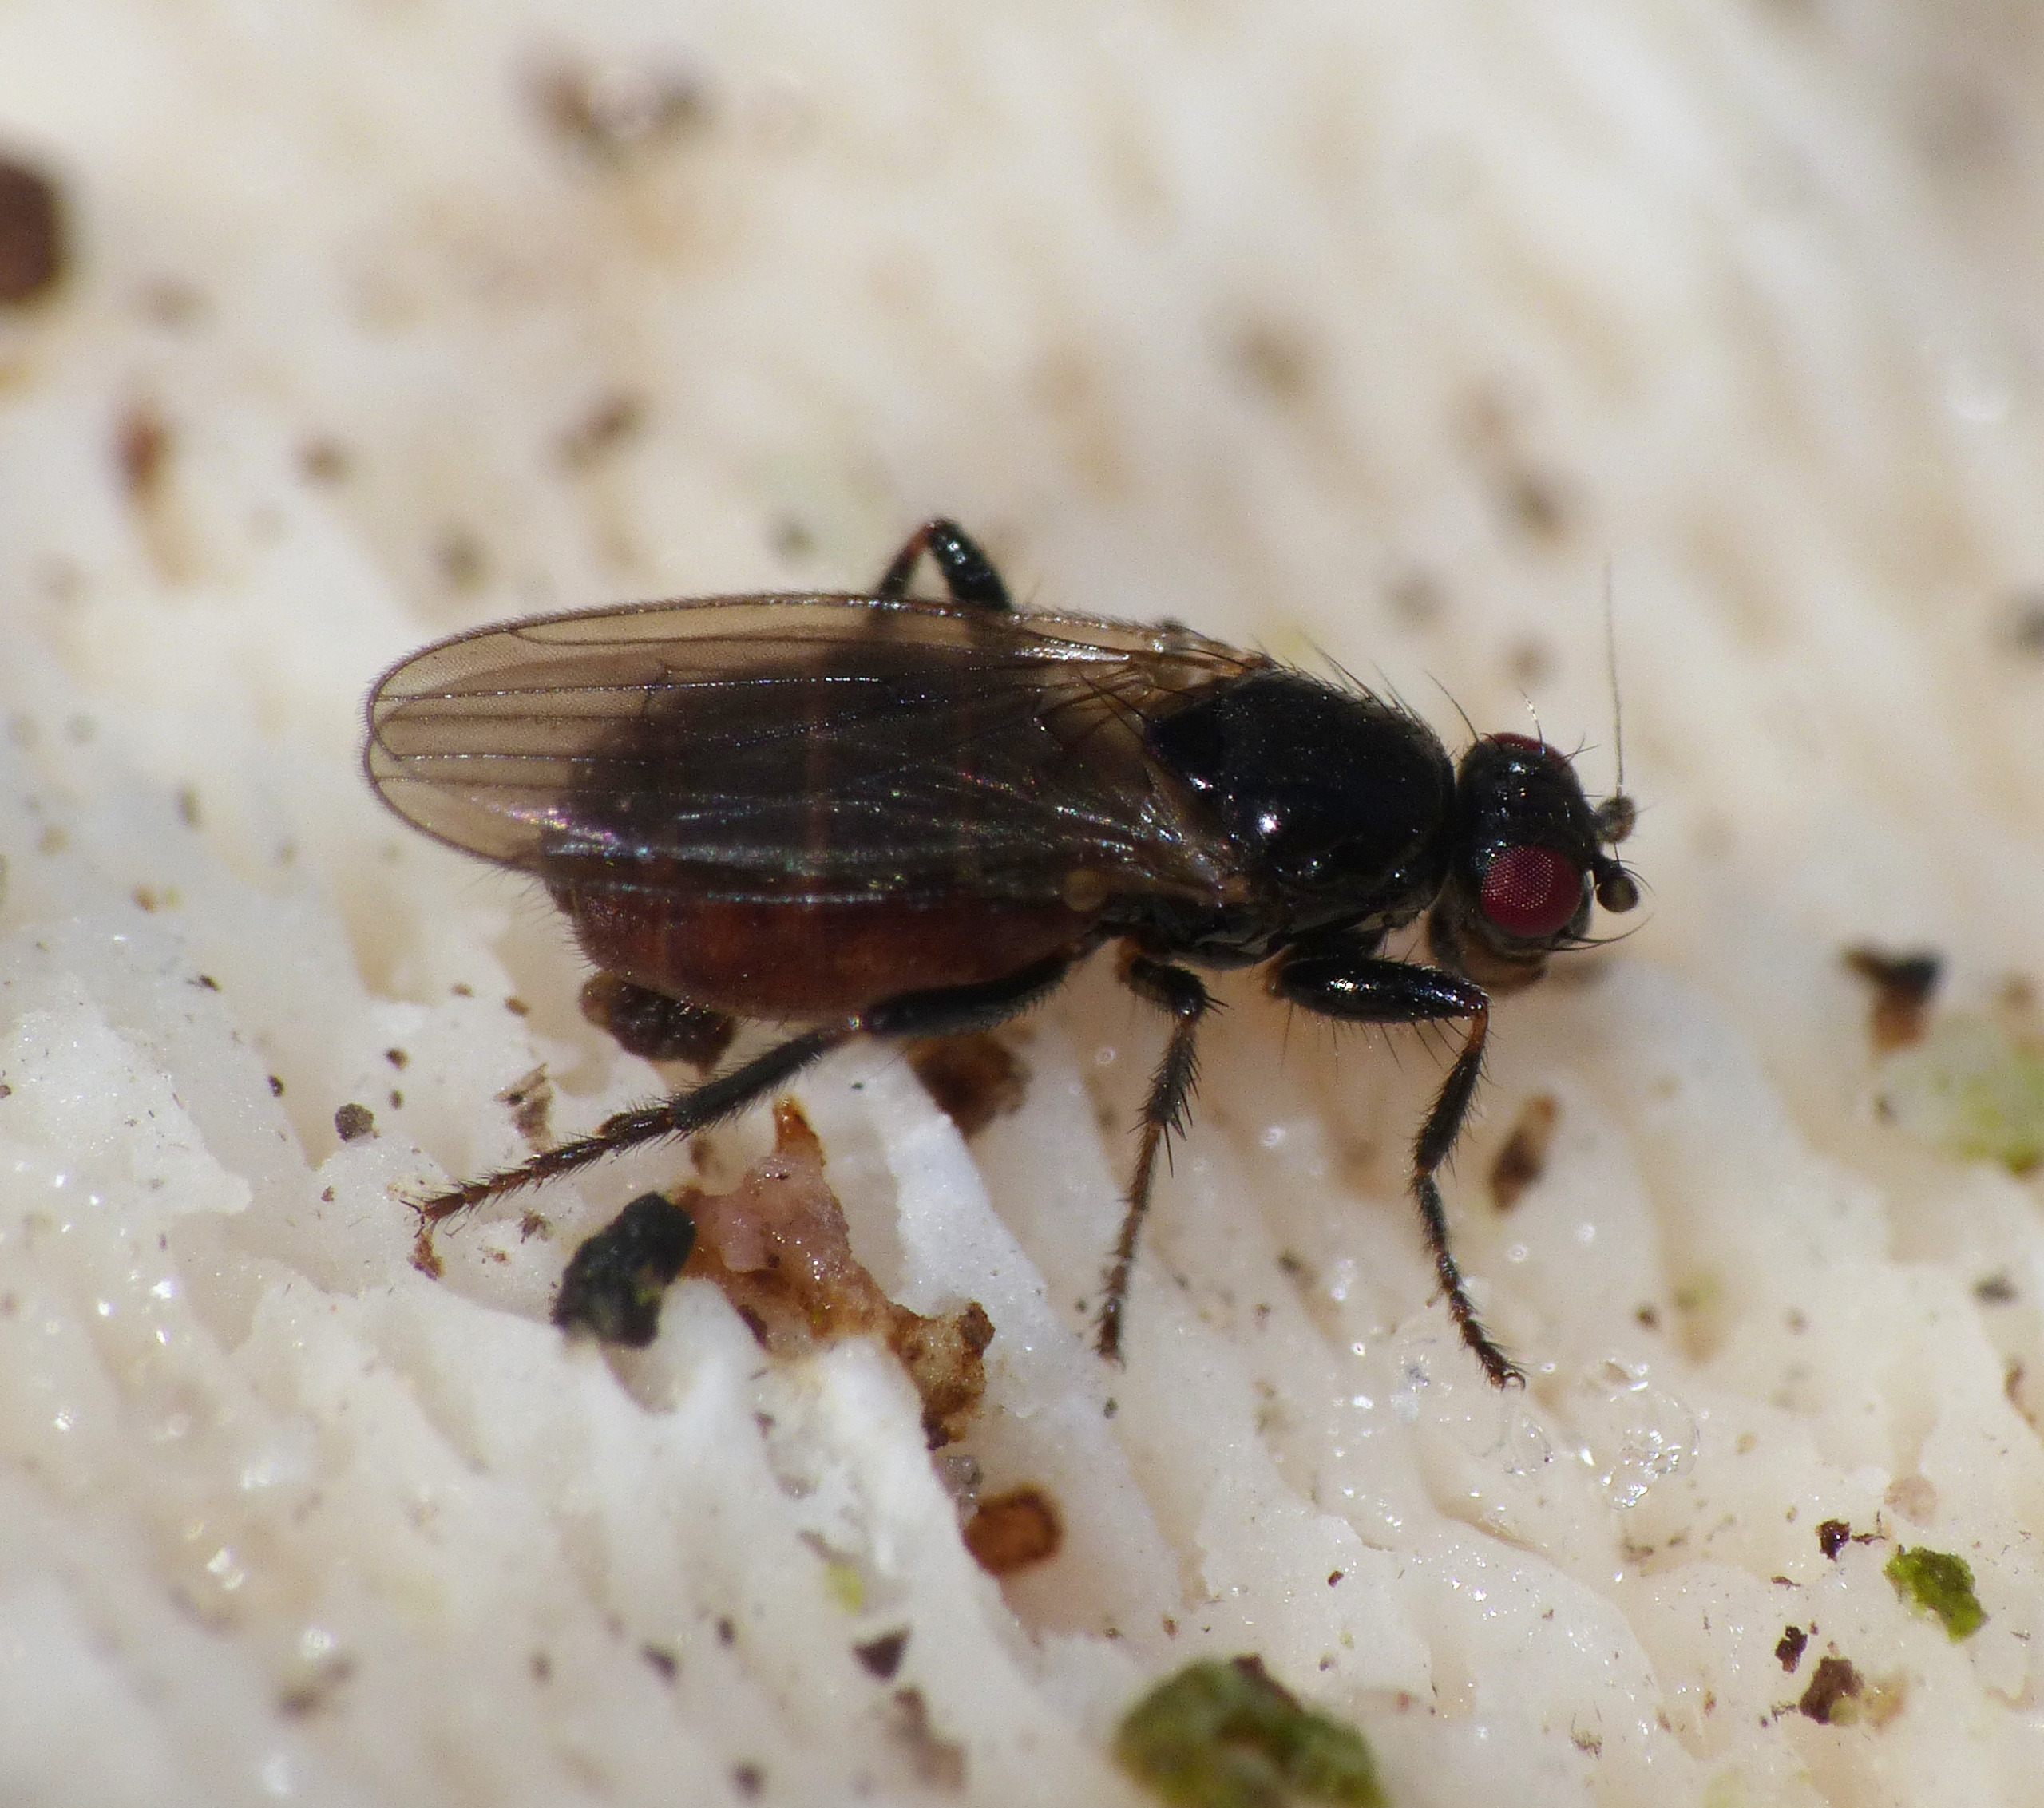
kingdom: Animalia
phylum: Arthropoda
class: Insecta
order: Diptera
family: Sphaeroceridae
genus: Crumomyia
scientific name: Crumomyia
